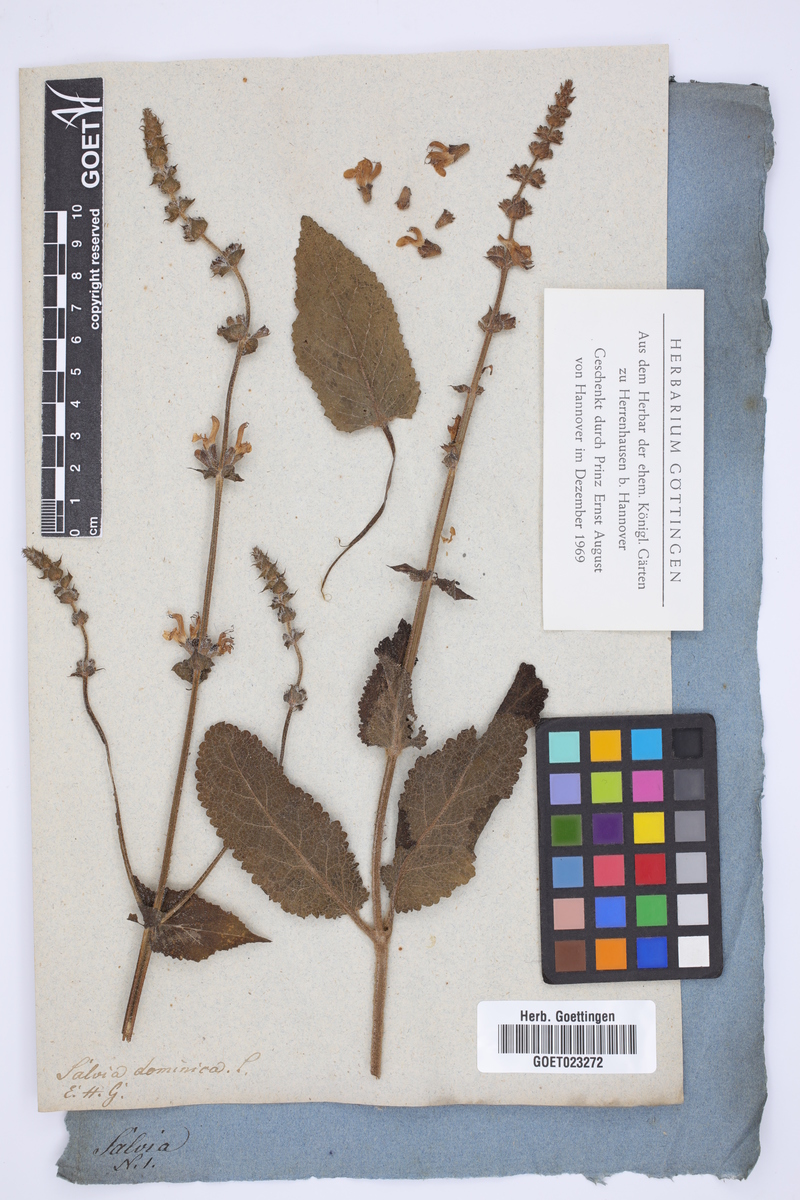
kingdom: Plantae
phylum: Tracheophyta
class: Magnoliopsida
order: Lamiales
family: Lamiaceae
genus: Salvia
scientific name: Salvia dominica
